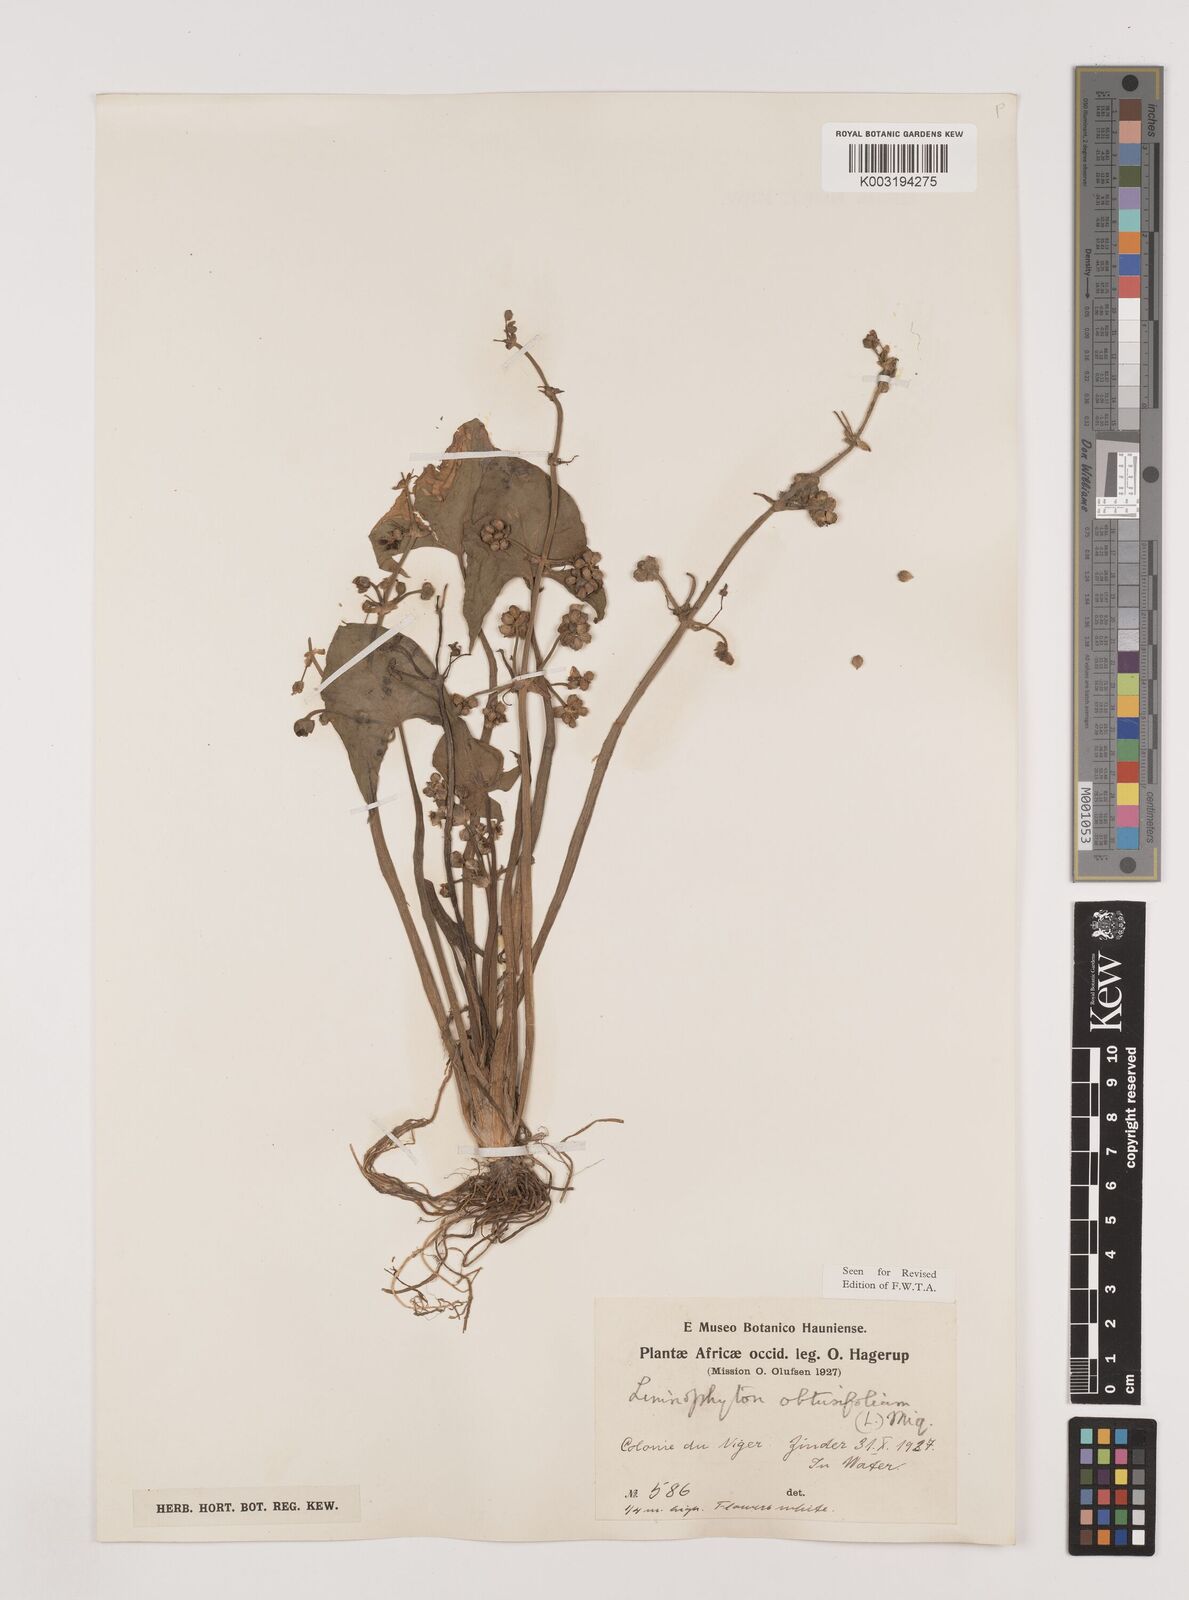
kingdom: Plantae
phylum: Tracheophyta
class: Liliopsida
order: Alismatales
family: Alismataceae
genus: Limnophyton
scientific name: Limnophyton obtusifolium
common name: Arrow head
